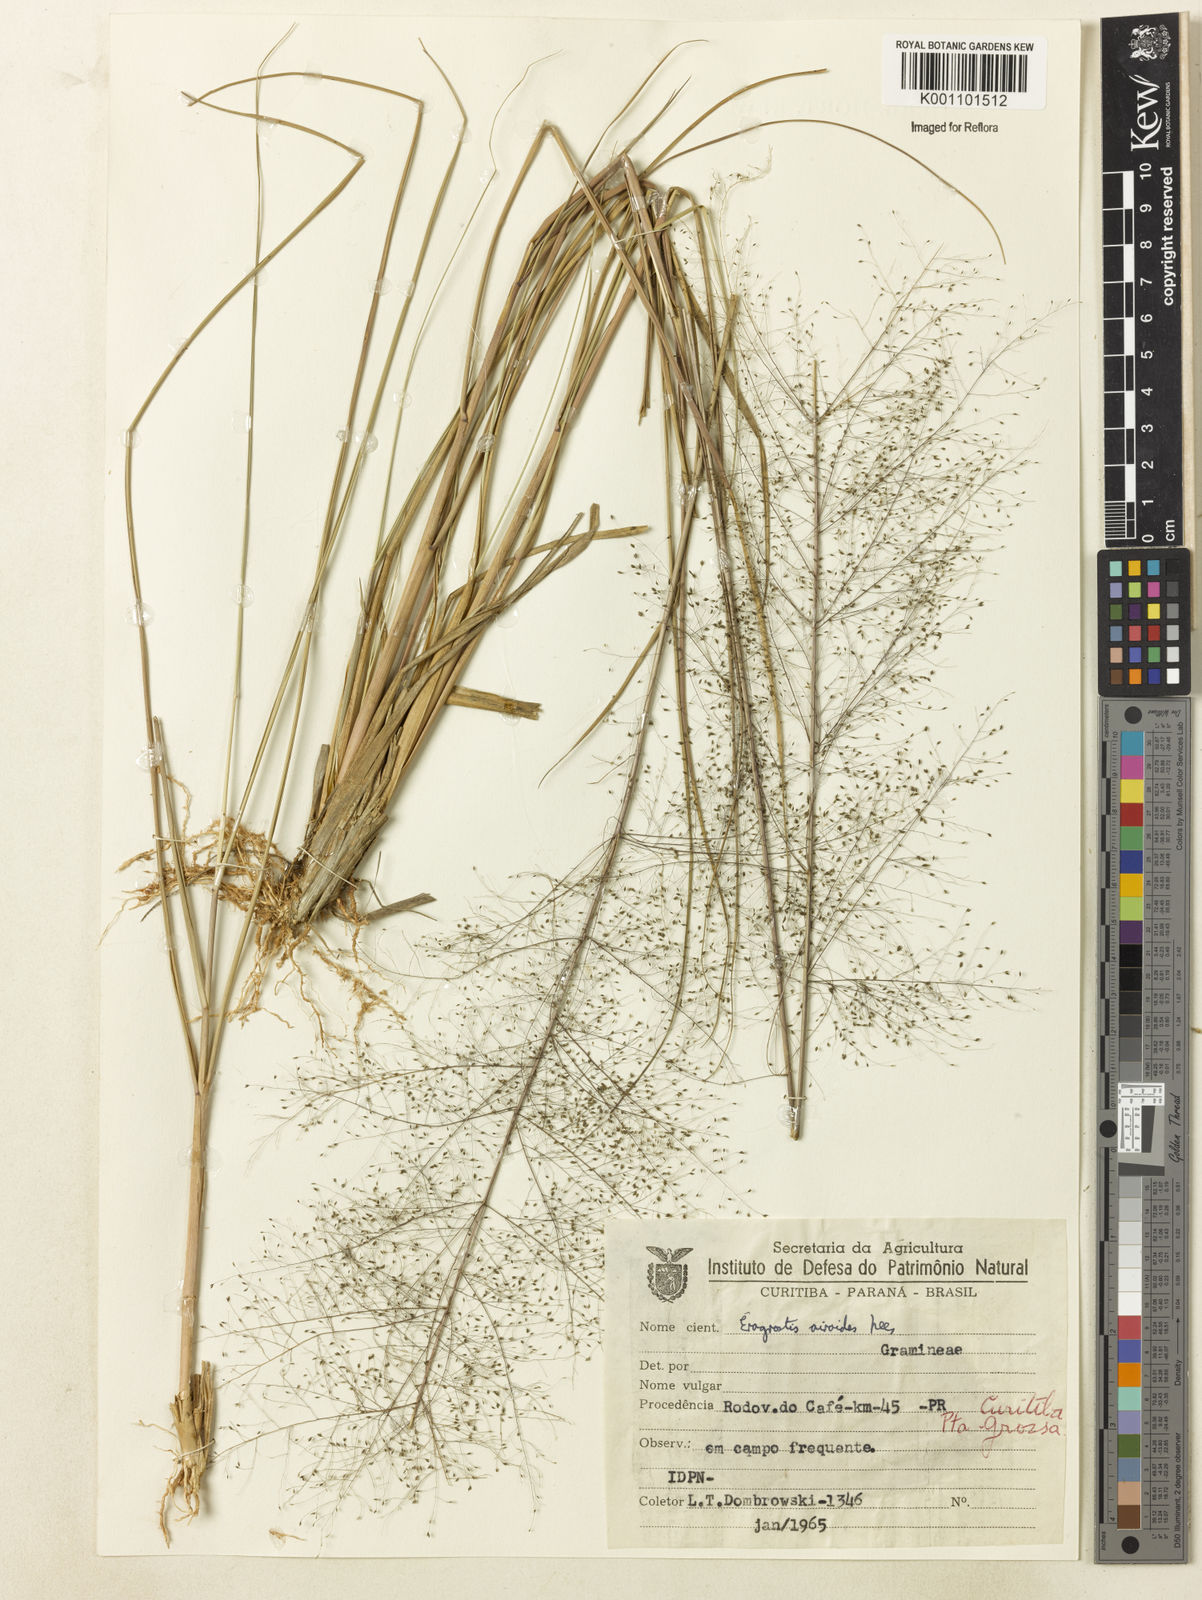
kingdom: Plantae
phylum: Tracheophyta
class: Liliopsida
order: Poales
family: Poaceae
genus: Eragrostis
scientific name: Eragrostis airoides
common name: Darnel lovegrass
